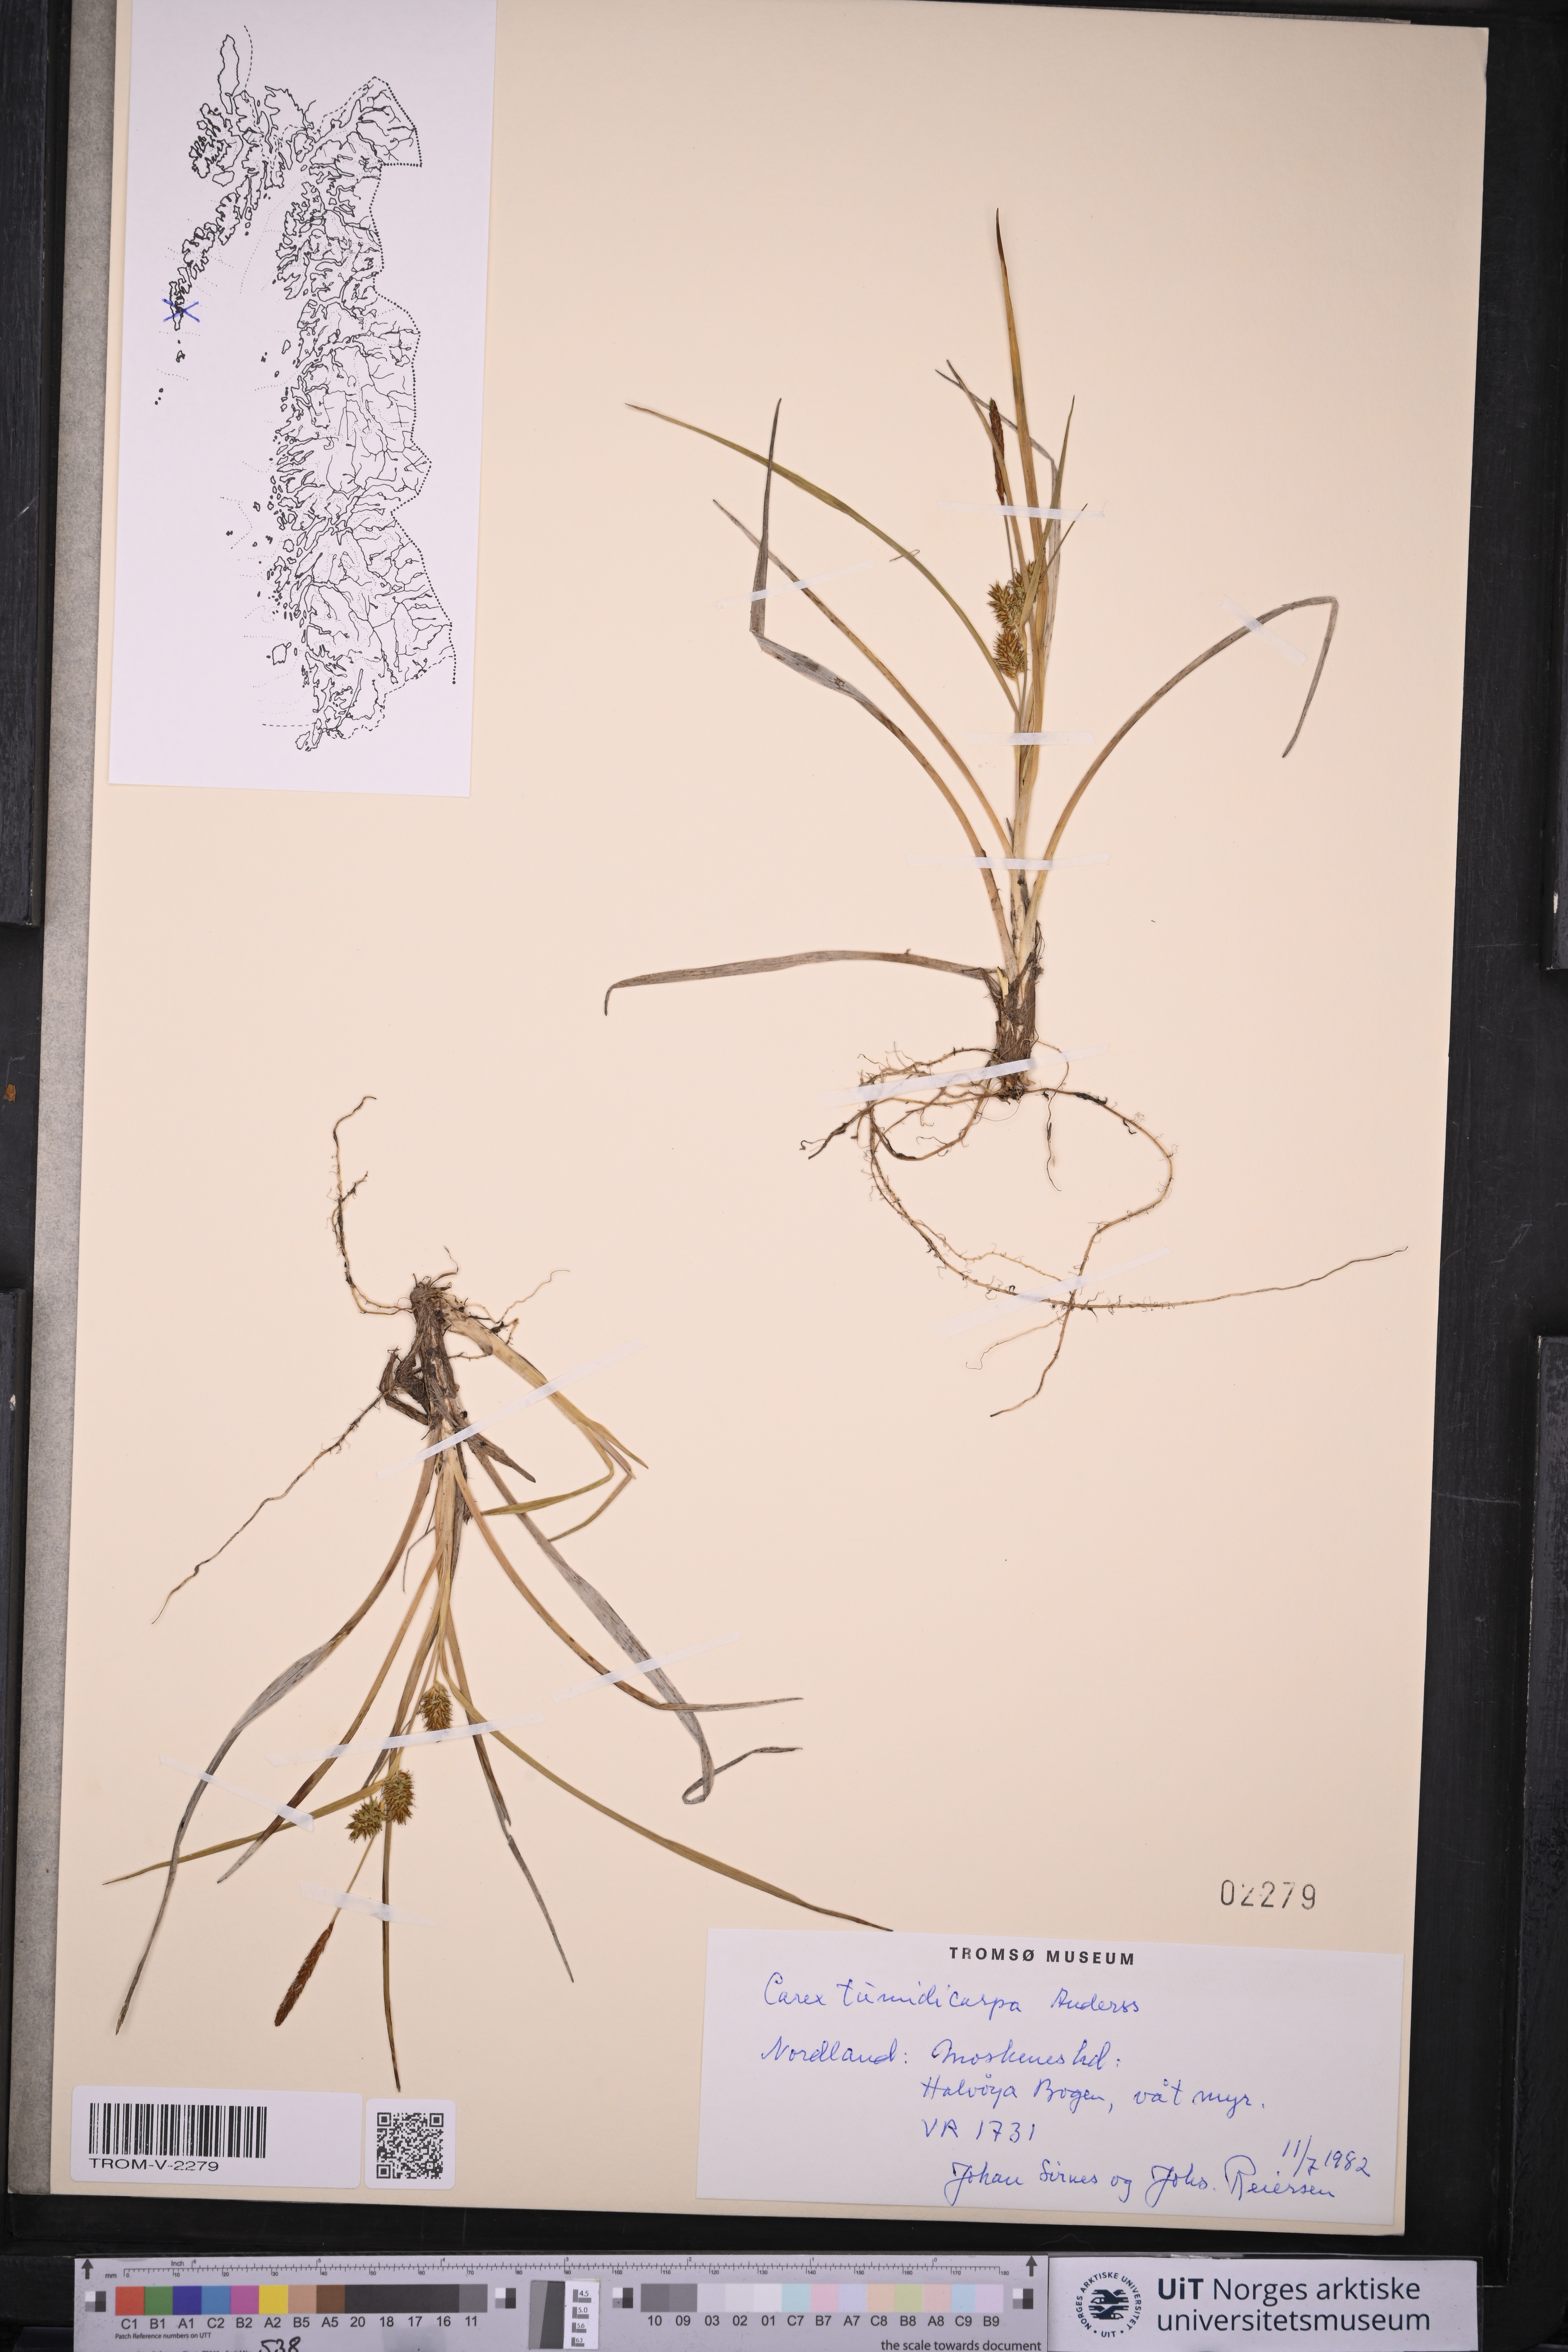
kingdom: Plantae
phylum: Tracheophyta
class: Liliopsida
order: Poales
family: Cyperaceae
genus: Carex
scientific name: Carex demissa
